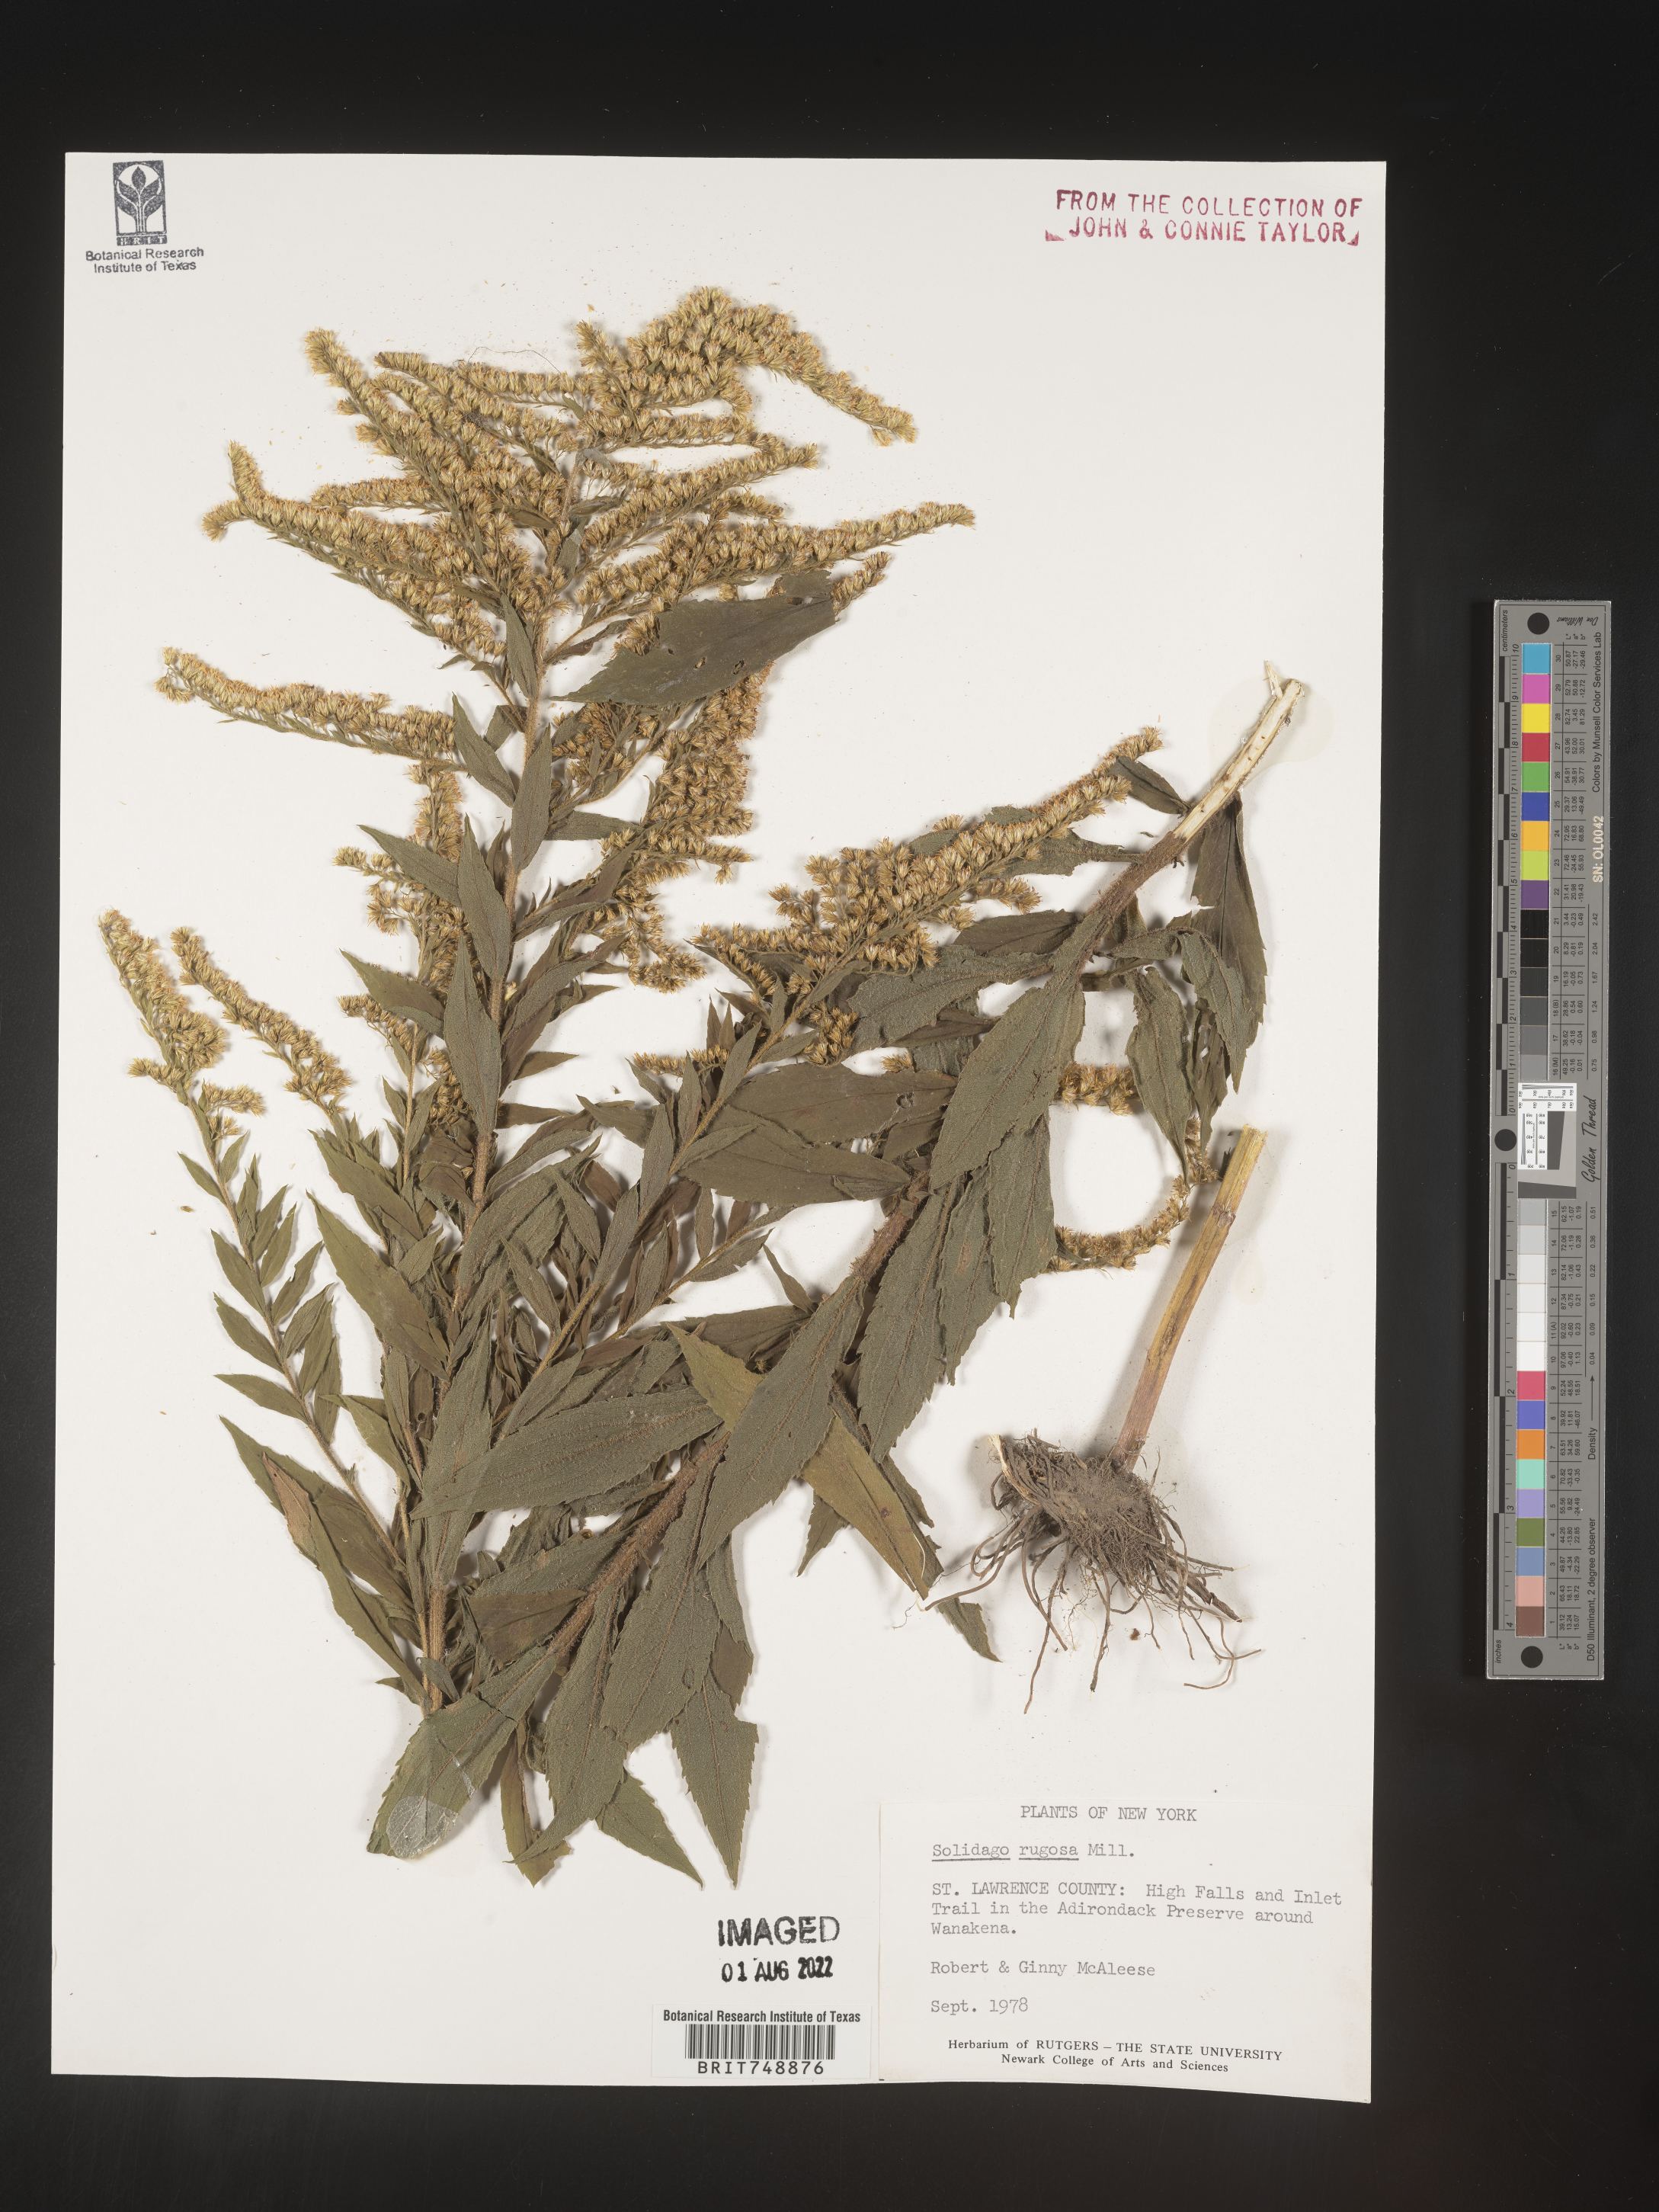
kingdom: Plantae
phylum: Tracheophyta
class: Magnoliopsida
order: Asterales
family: Asteraceae
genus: Solidago
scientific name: Solidago rugosa
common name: Rough-stemmed goldenrod
